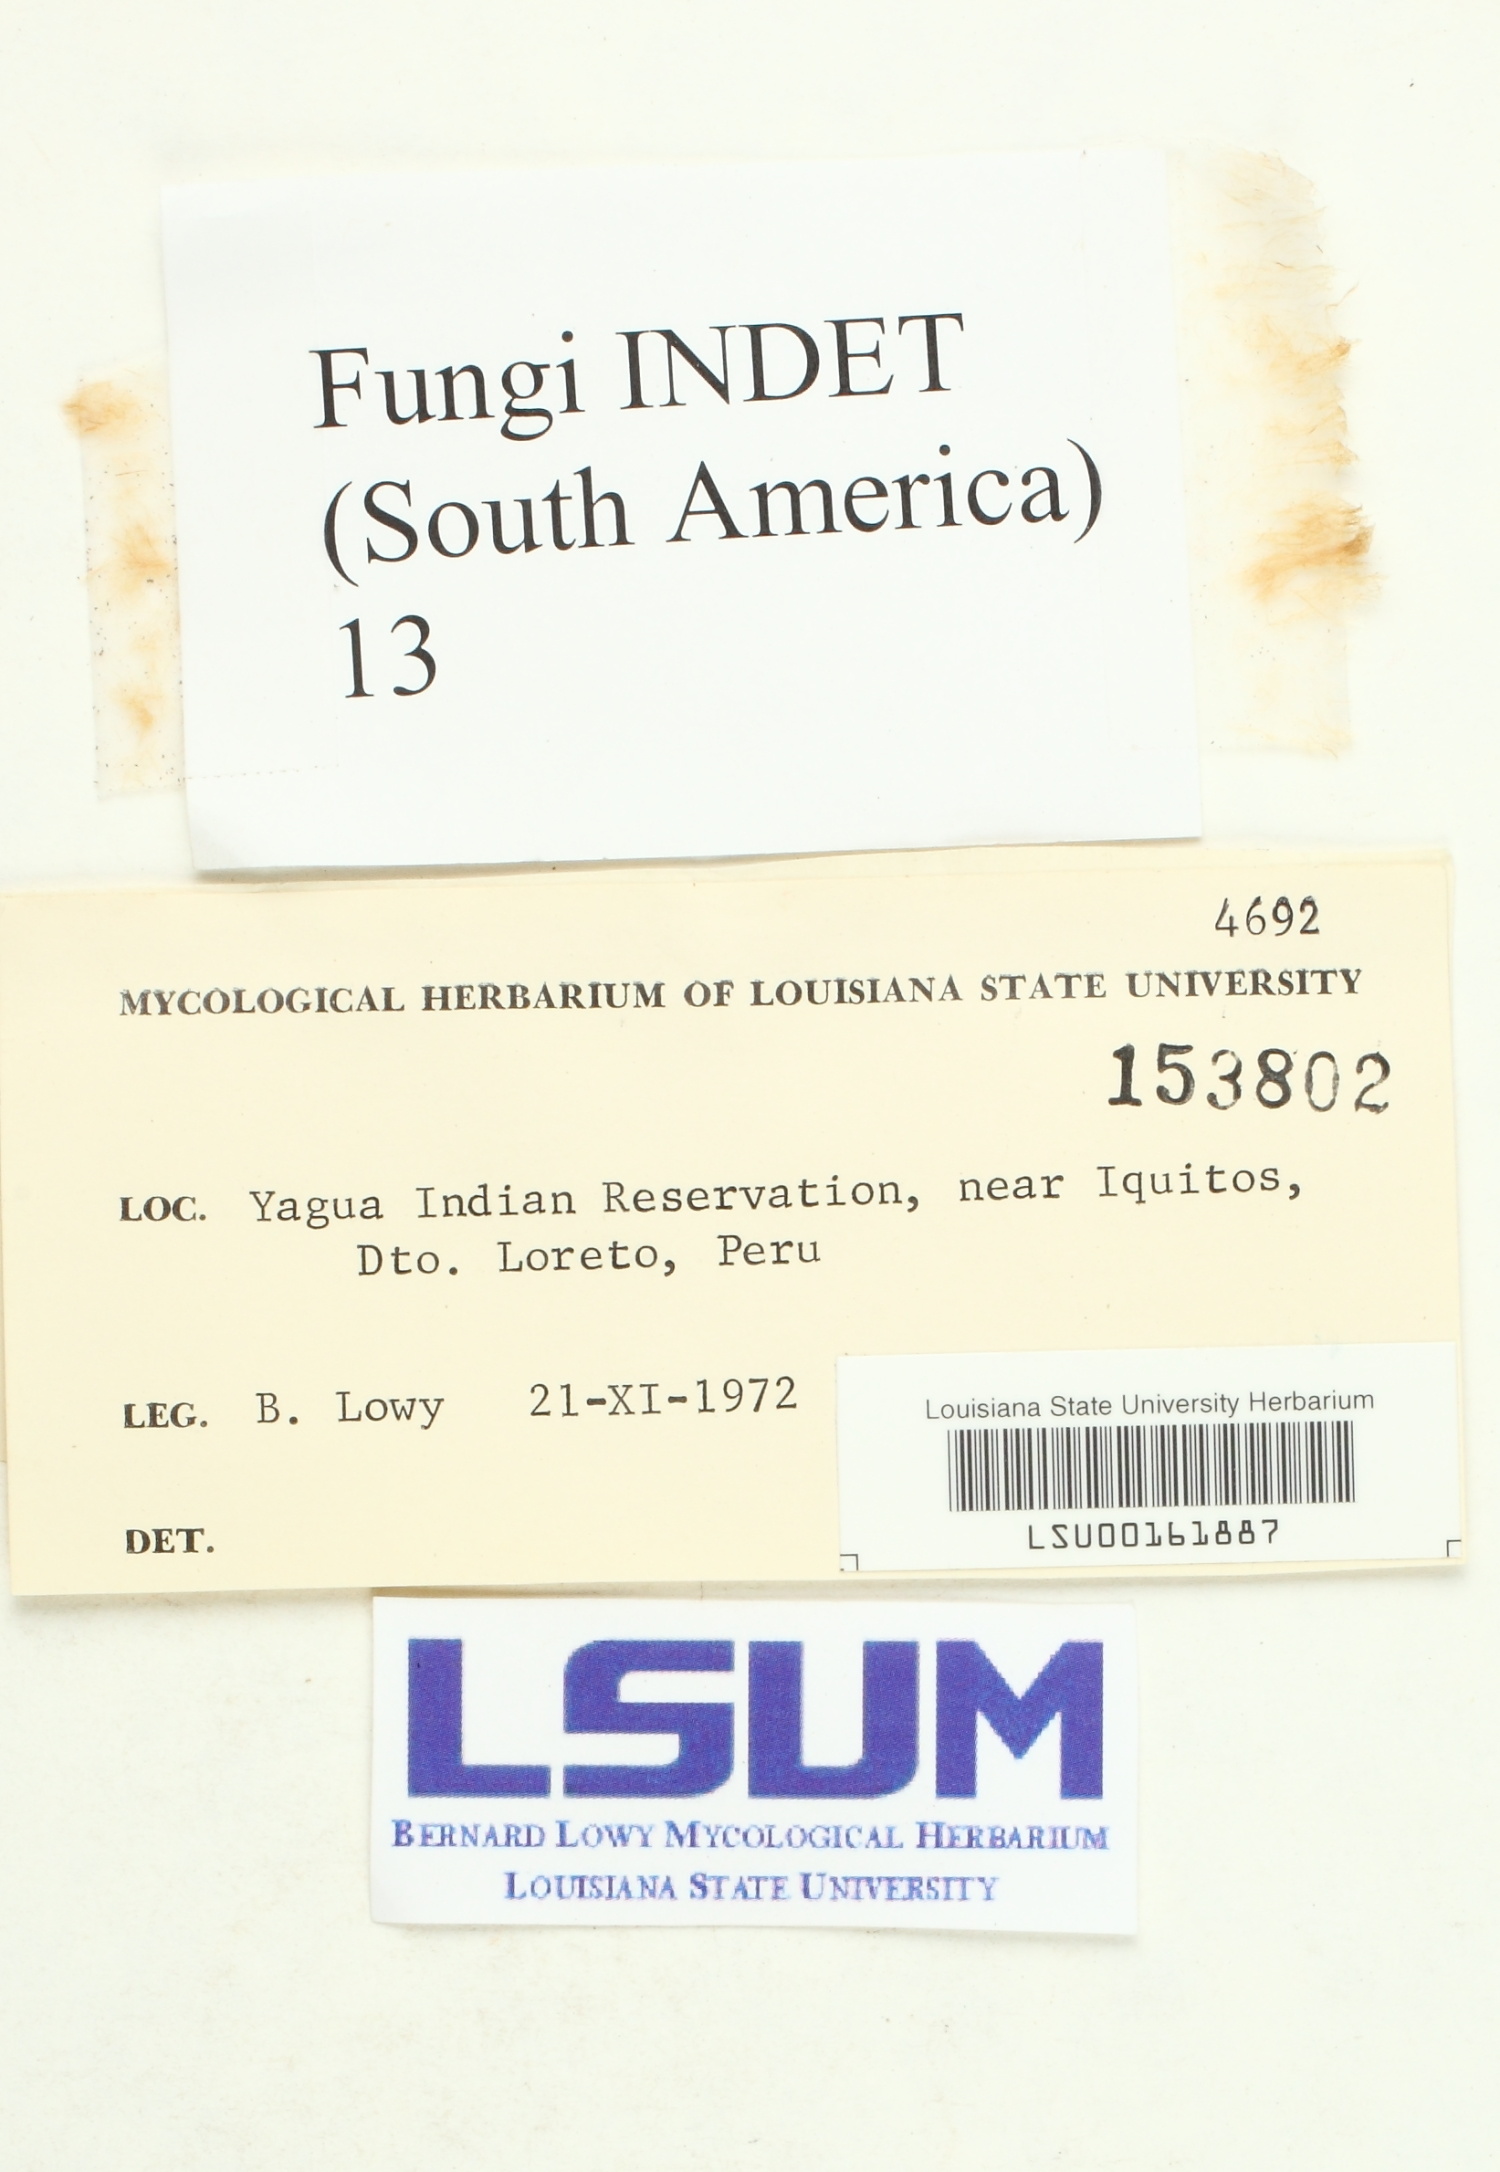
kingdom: Fungi
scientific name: Fungi
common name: Fungi
